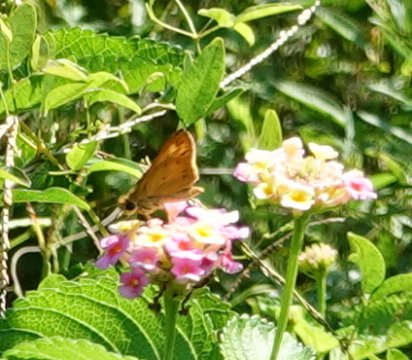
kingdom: Animalia
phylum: Arthropoda
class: Insecta
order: Lepidoptera
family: Hesperiidae
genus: Hylephila
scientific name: Hylephila phyleus
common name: Fiery Skipper
